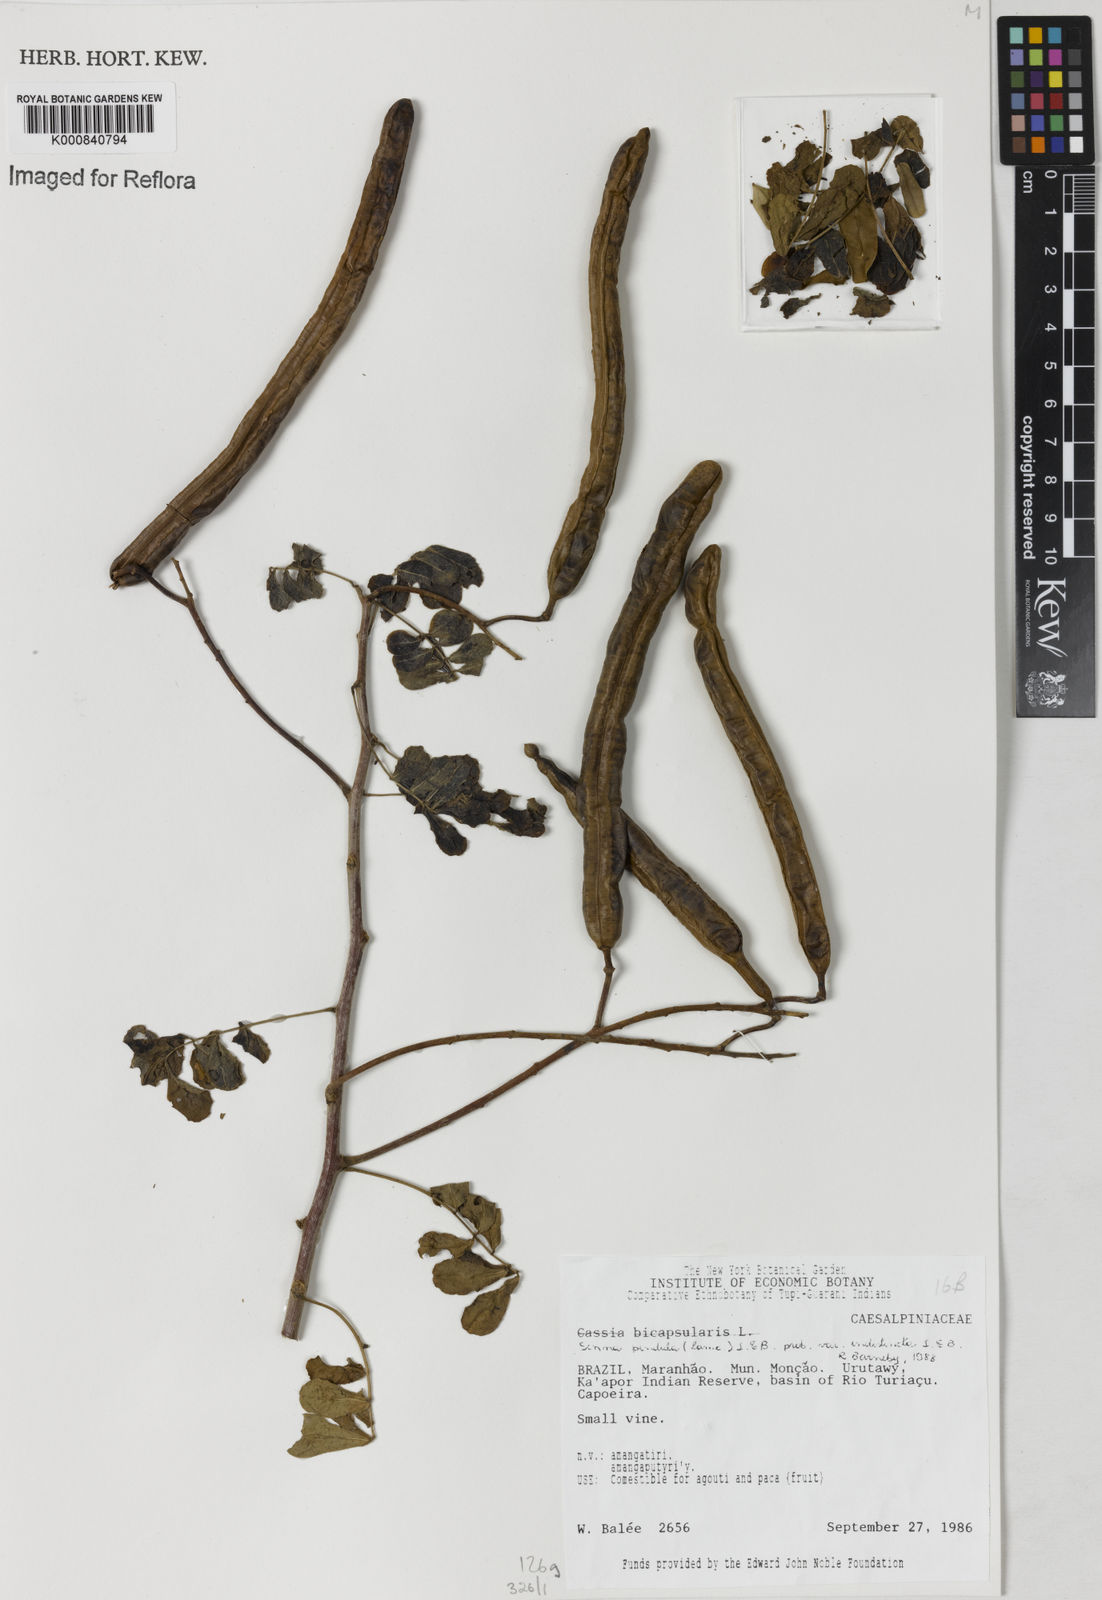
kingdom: Plantae
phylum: Tracheophyta
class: Magnoliopsida
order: Fabales
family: Fabaceae
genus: Senna
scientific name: Senna pendula
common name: Easter cassia
